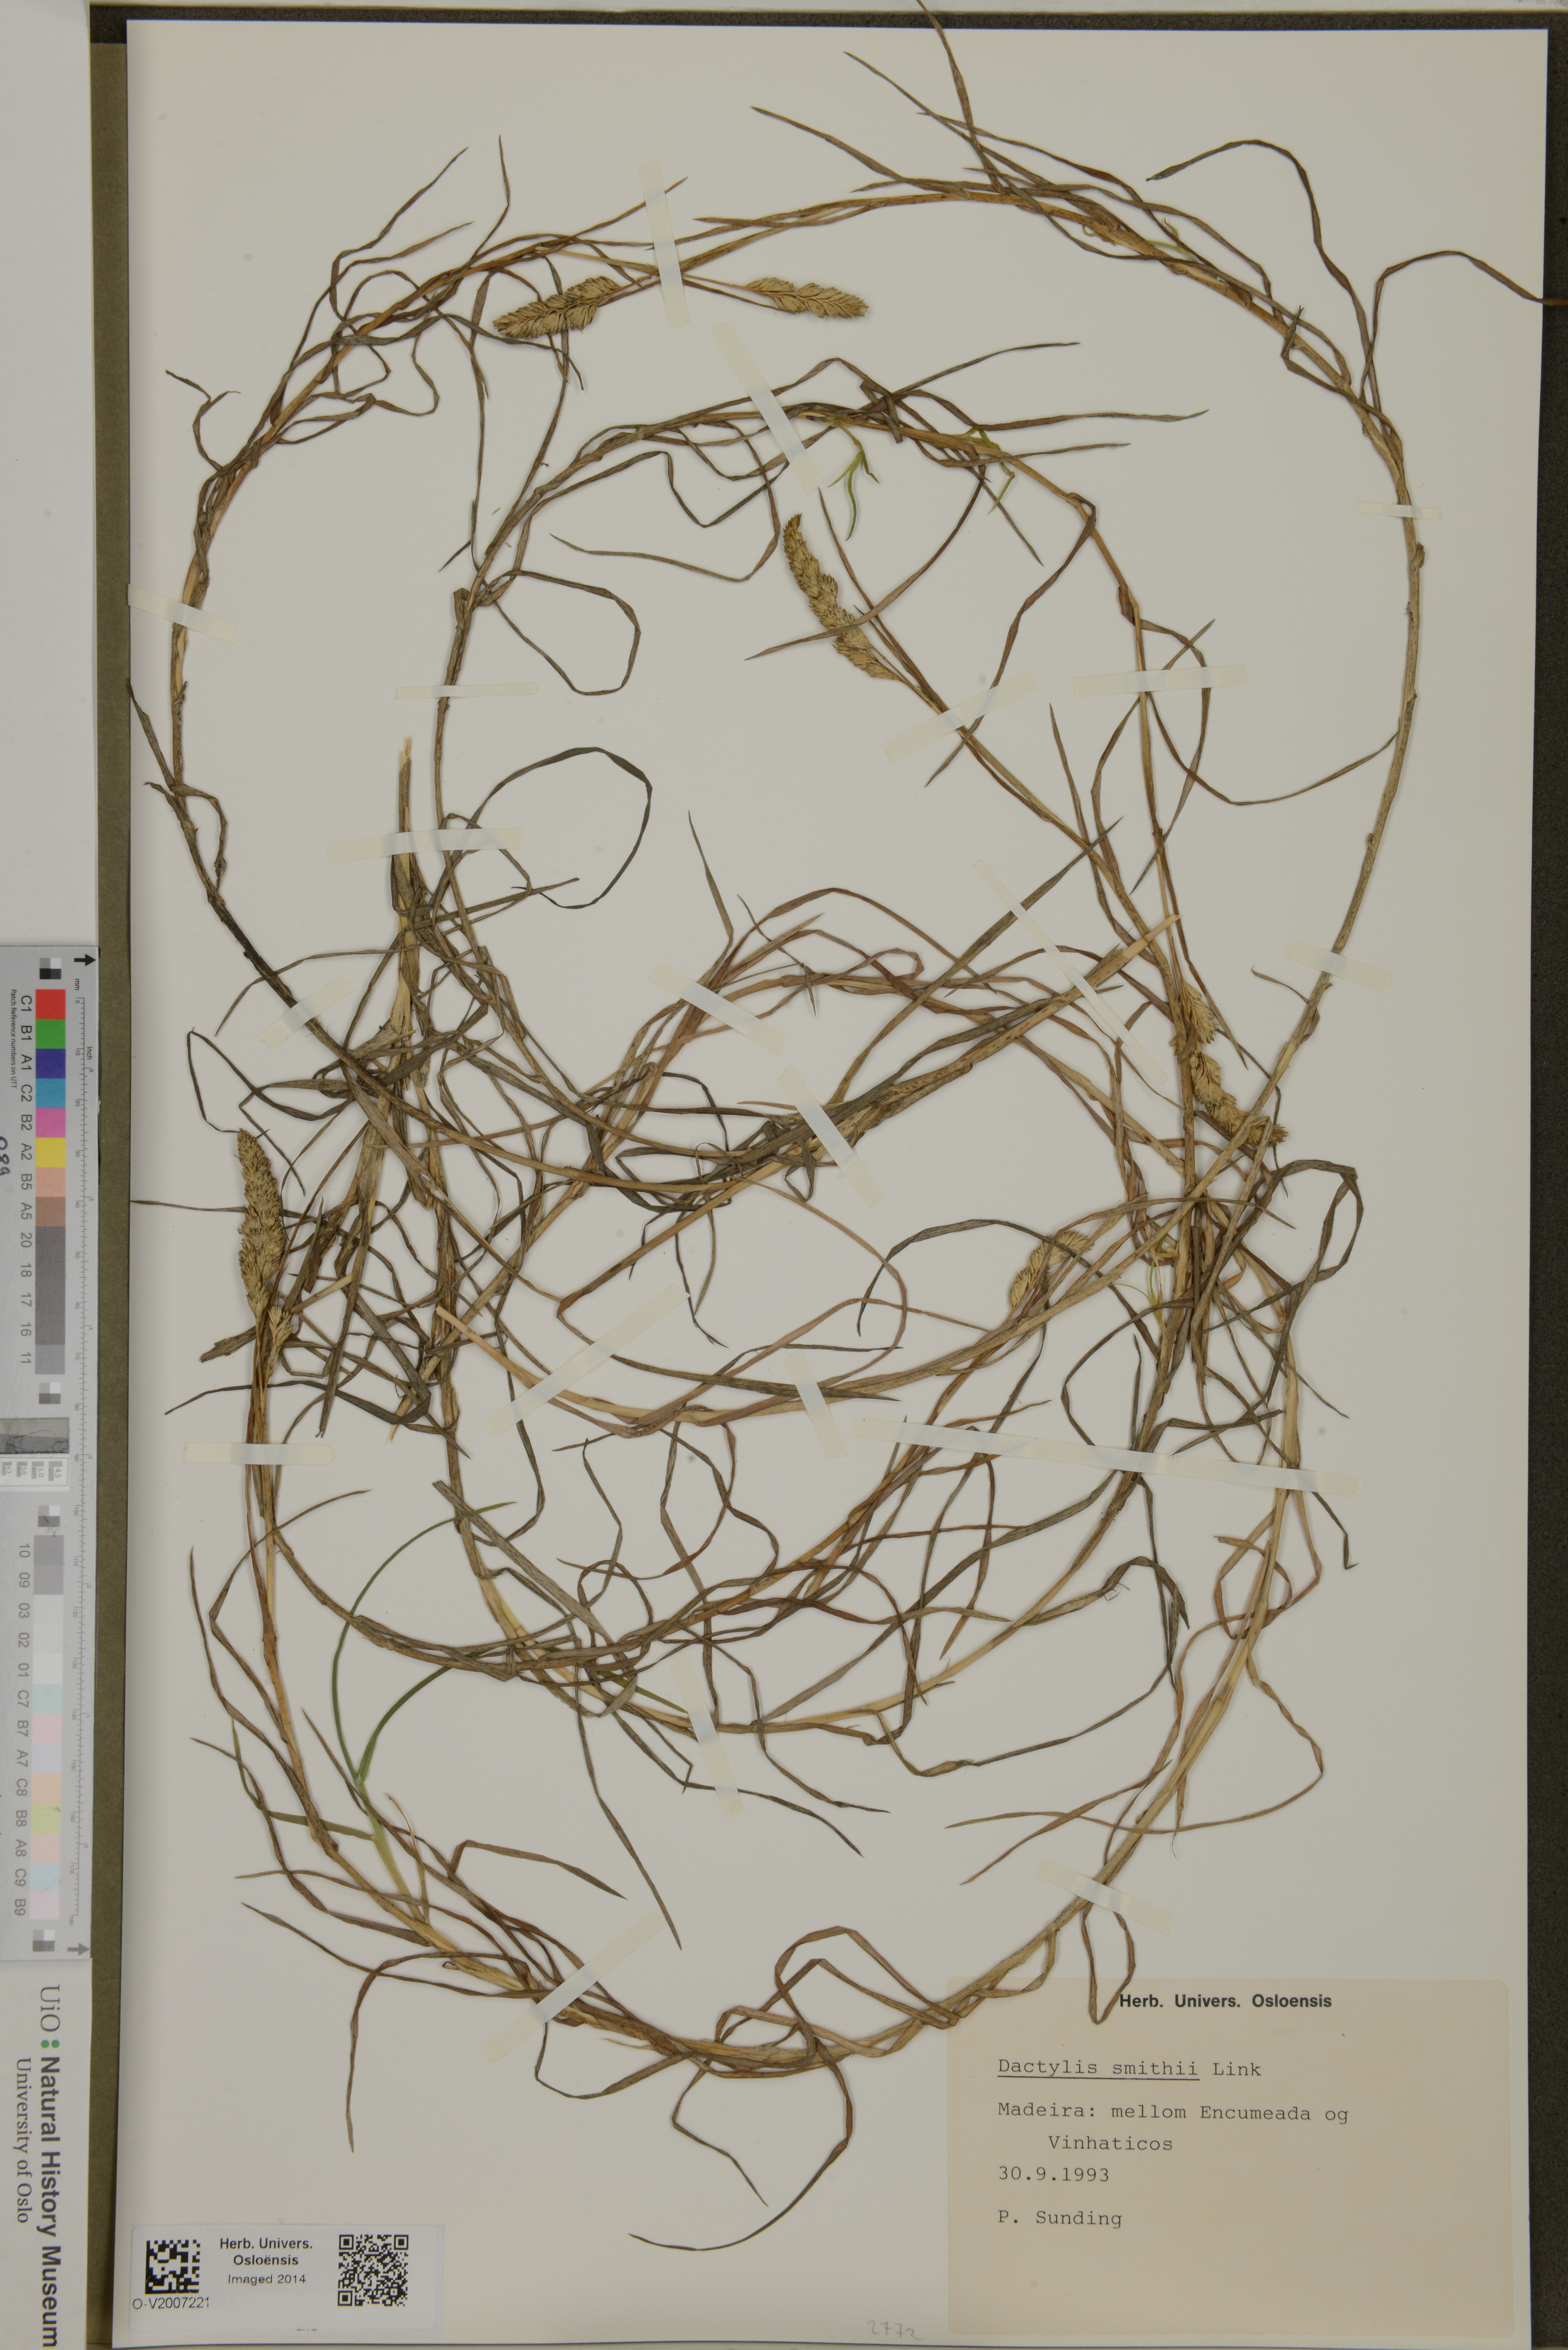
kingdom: Plantae
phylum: Tracheophyta
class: Liliopsida
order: Poales
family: Poaceae
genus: Dactylis
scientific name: Dactylis smithii
